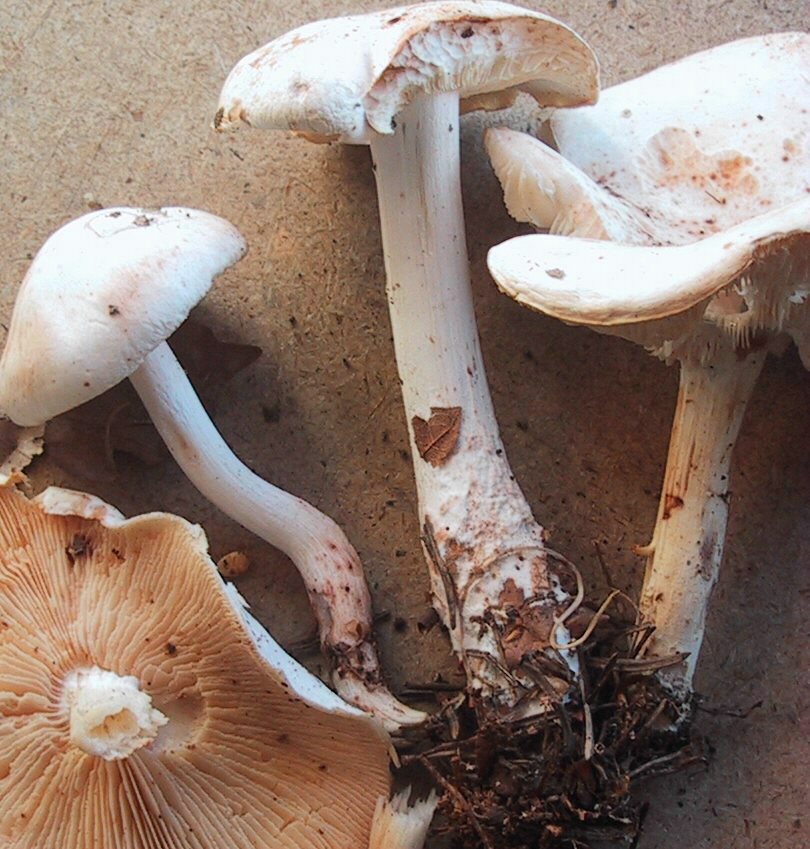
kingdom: Fungi
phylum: Basidiomycota
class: Agaricomycetes
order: Agaricales
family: Omphalotaceae
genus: Rhodocollybia
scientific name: Rhodocollybia maculata
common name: plettet fladhat
